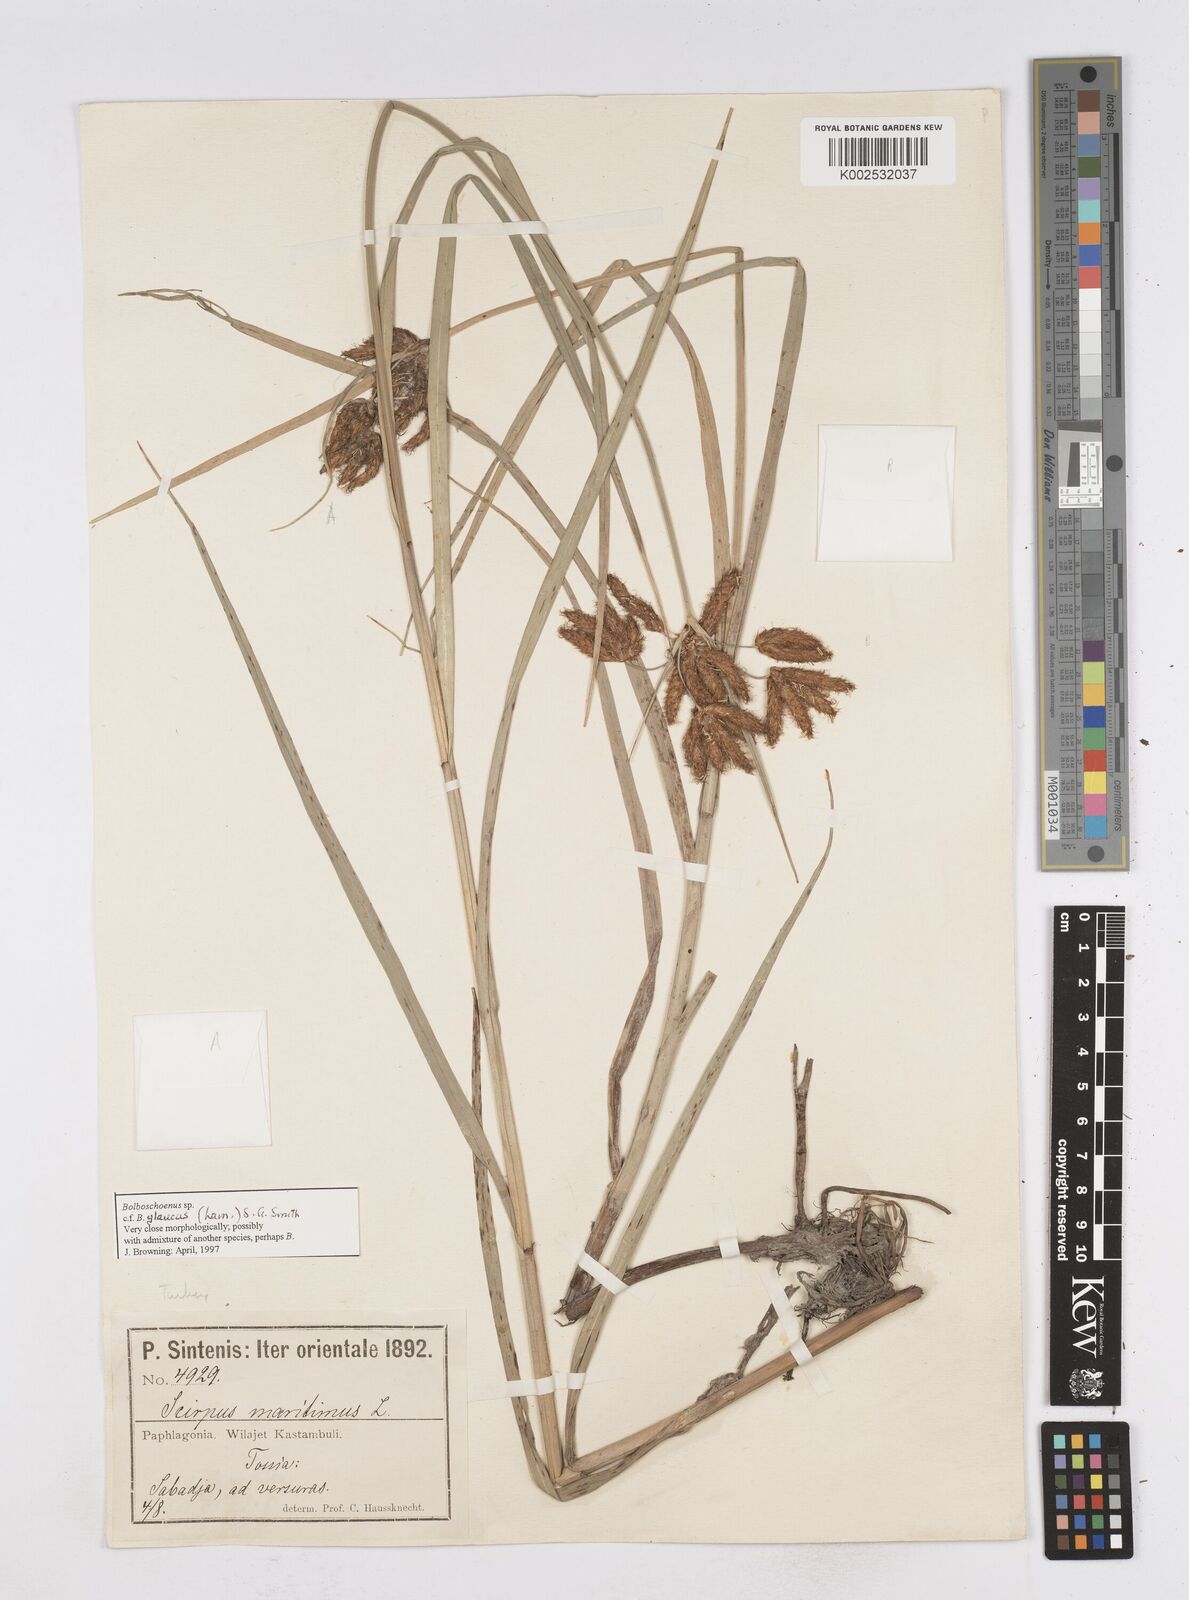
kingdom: Plantae
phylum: Tracheophyta
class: Liliopsida
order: Poales
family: Cyperaceae
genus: Bolboschoenus
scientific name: Bolboschoenus maritimus
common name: Sea club-rush
